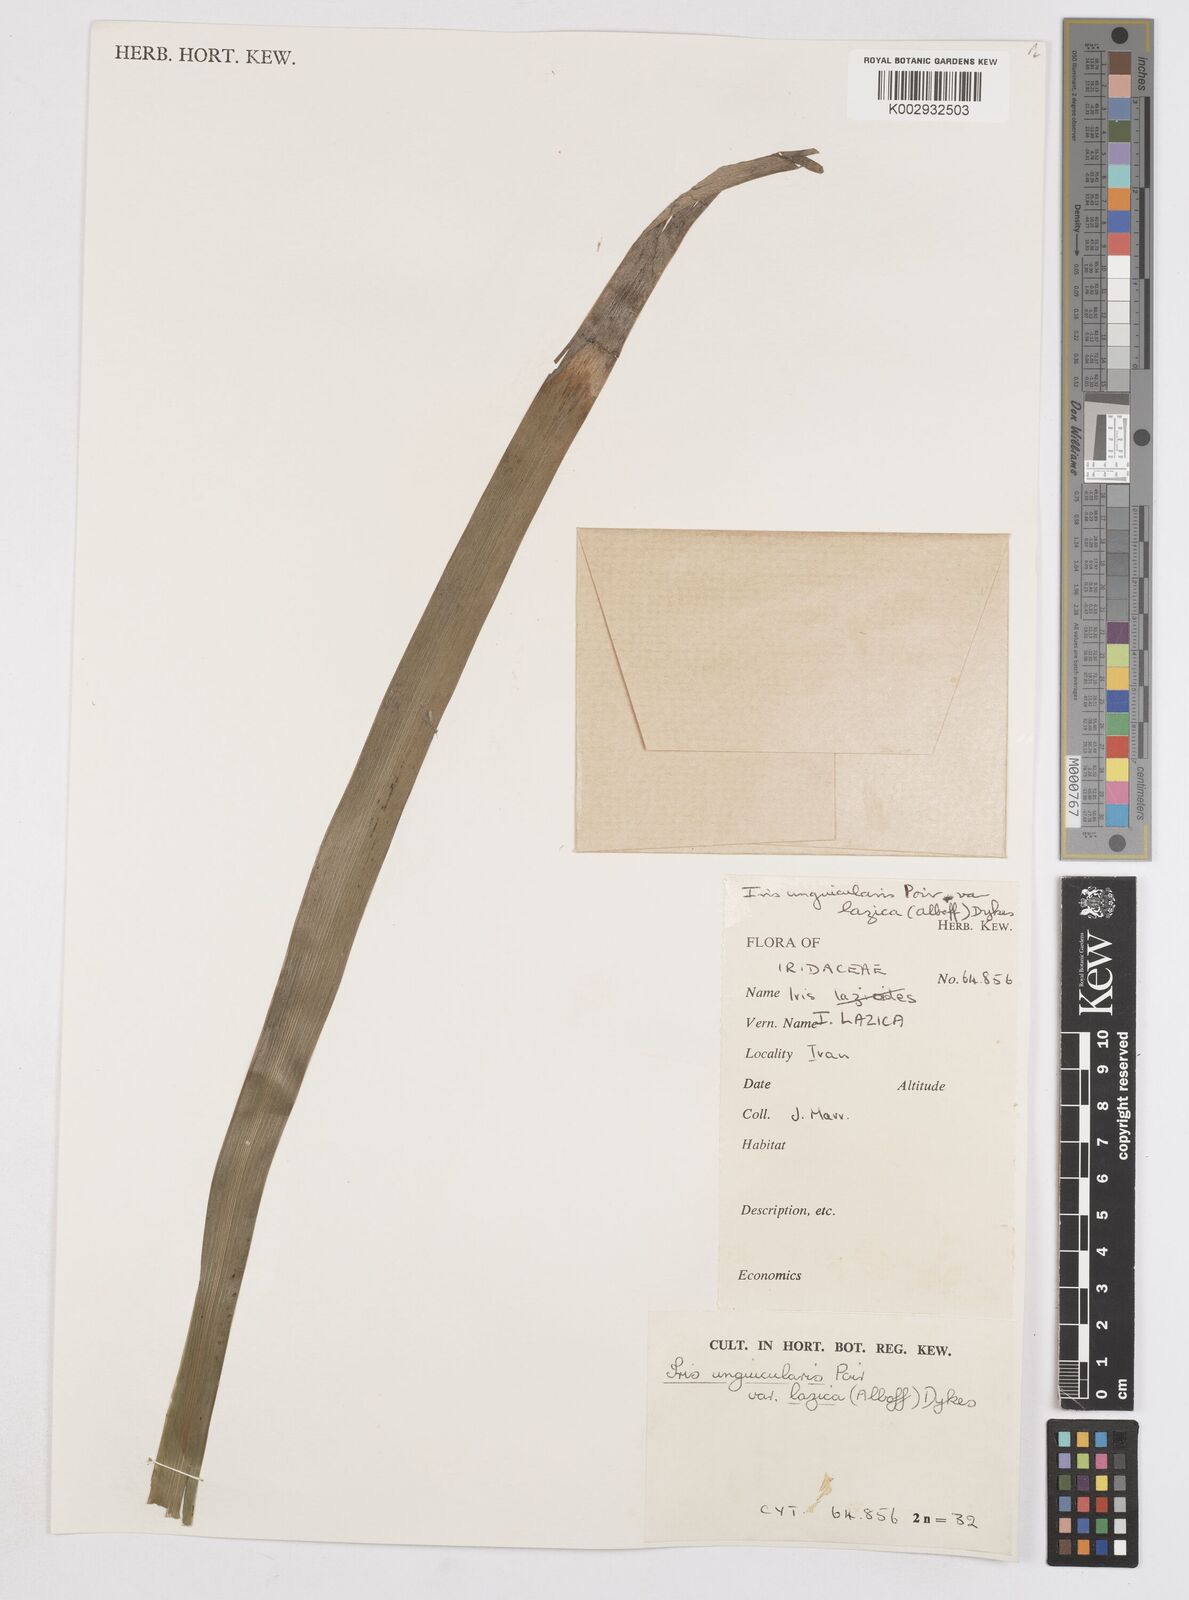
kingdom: Plantae
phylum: Tracheophyta
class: Liliopsida
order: Asparagales
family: Iridaceae
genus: Iris
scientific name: Iris unguicularis
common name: Algerian iris
